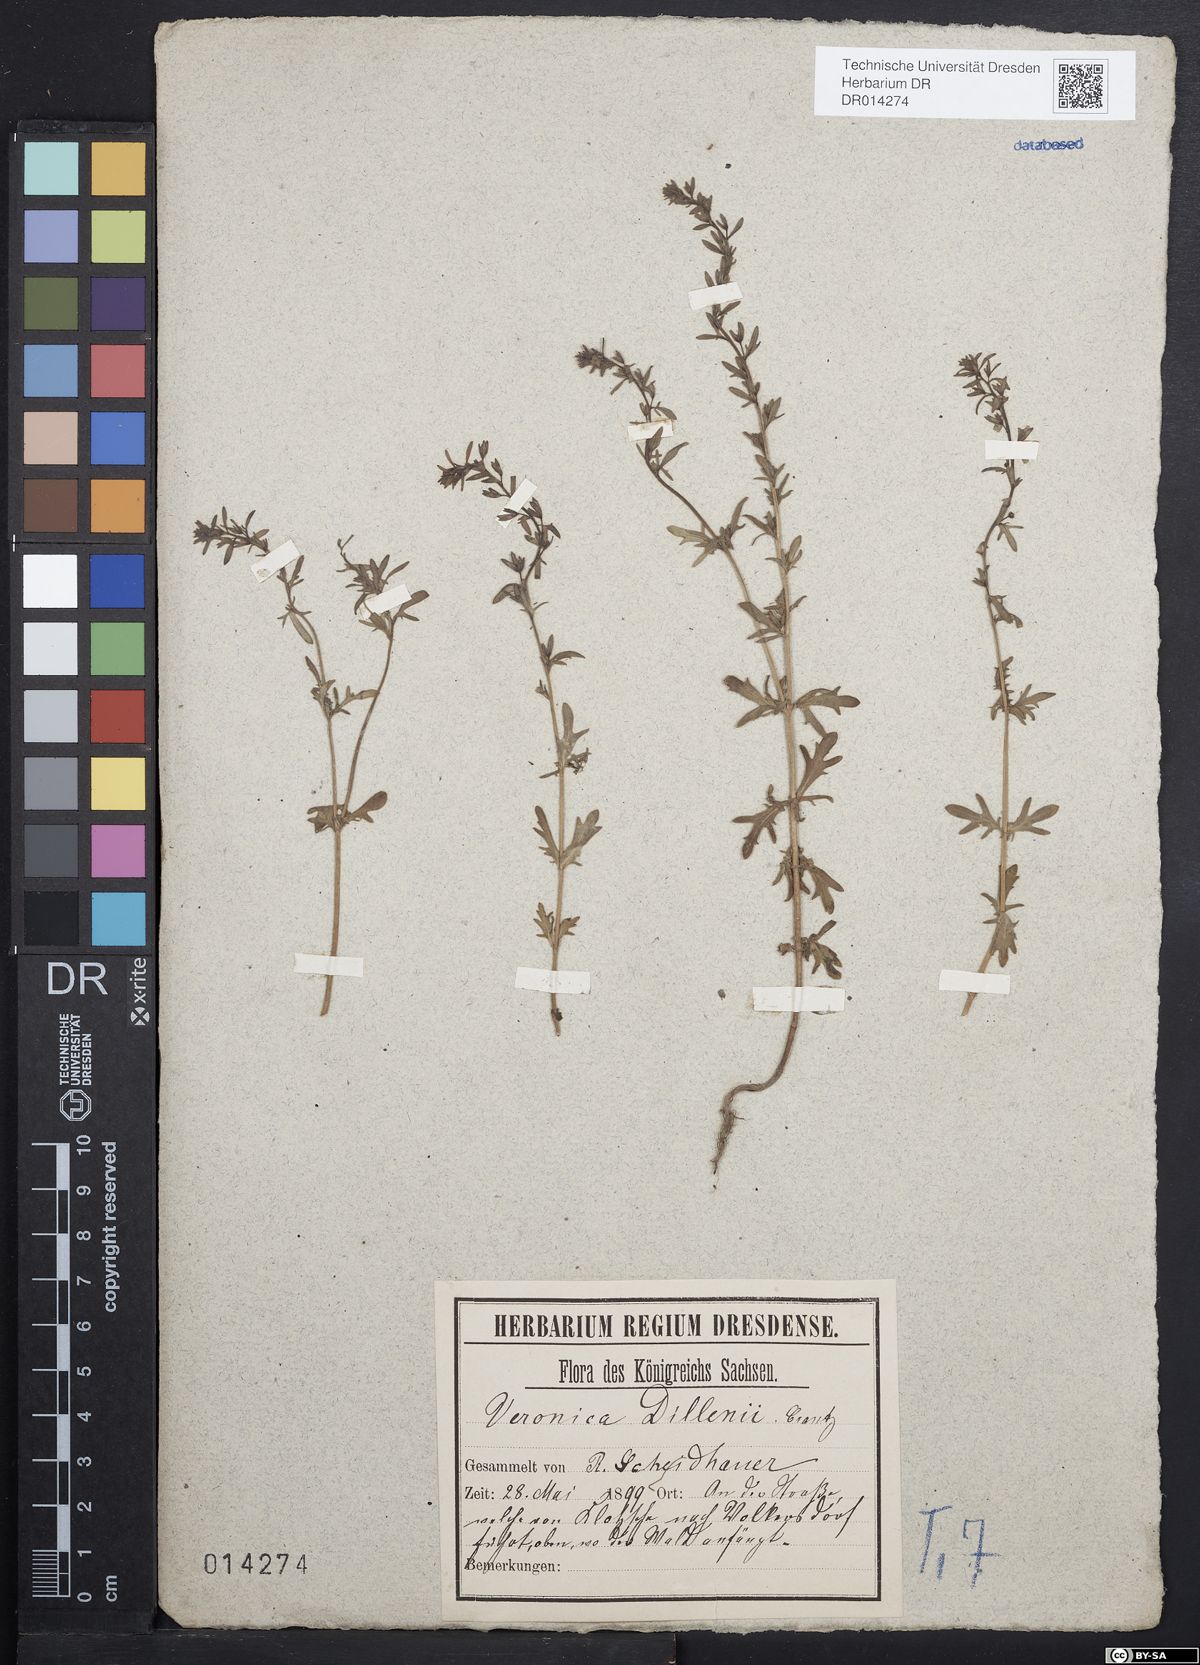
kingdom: Plantae
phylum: Tracheophyta
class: Magnoliopsida
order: Lamiales
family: Plantaginaceae
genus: Veronica
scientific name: Veronica dillenii
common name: Dillenius' speedwell
